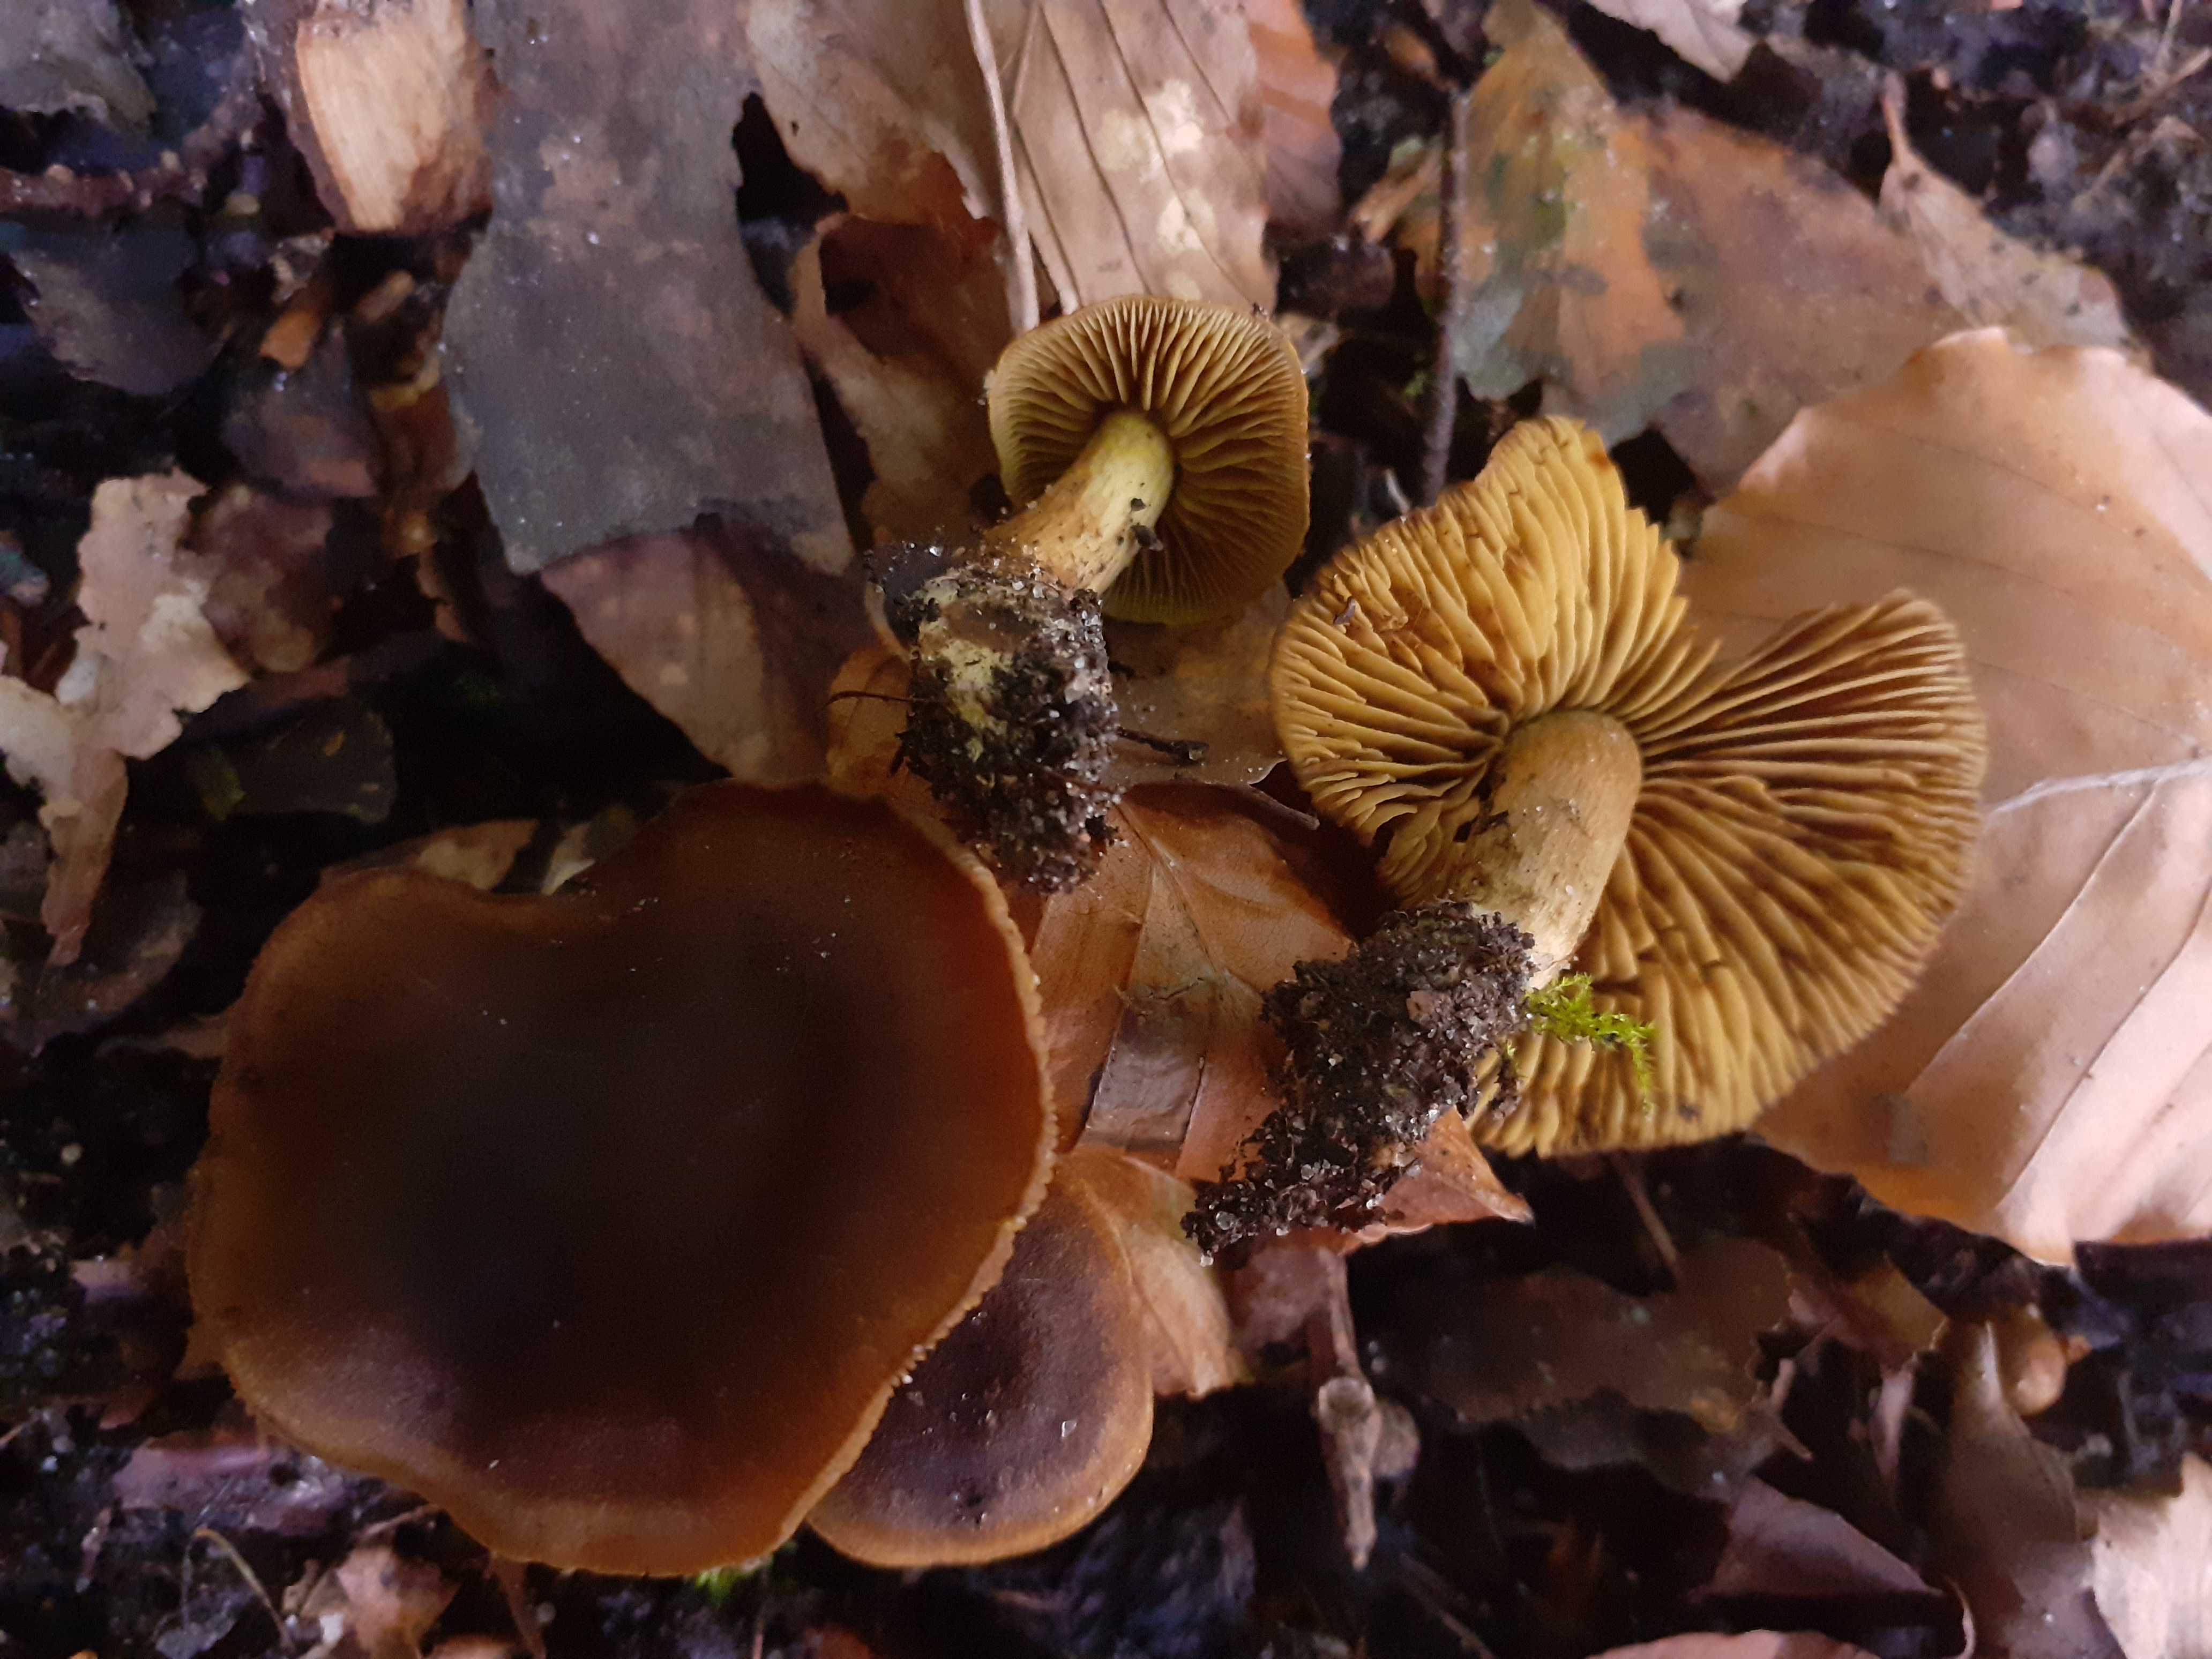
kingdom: Fungi
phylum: Basidiomycota
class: Agaricomycetes
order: Agaricales
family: Cortinariaceae
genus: Cortinarius
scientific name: Cortinarius olivaceofuscus
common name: olivenbrun slørhat
